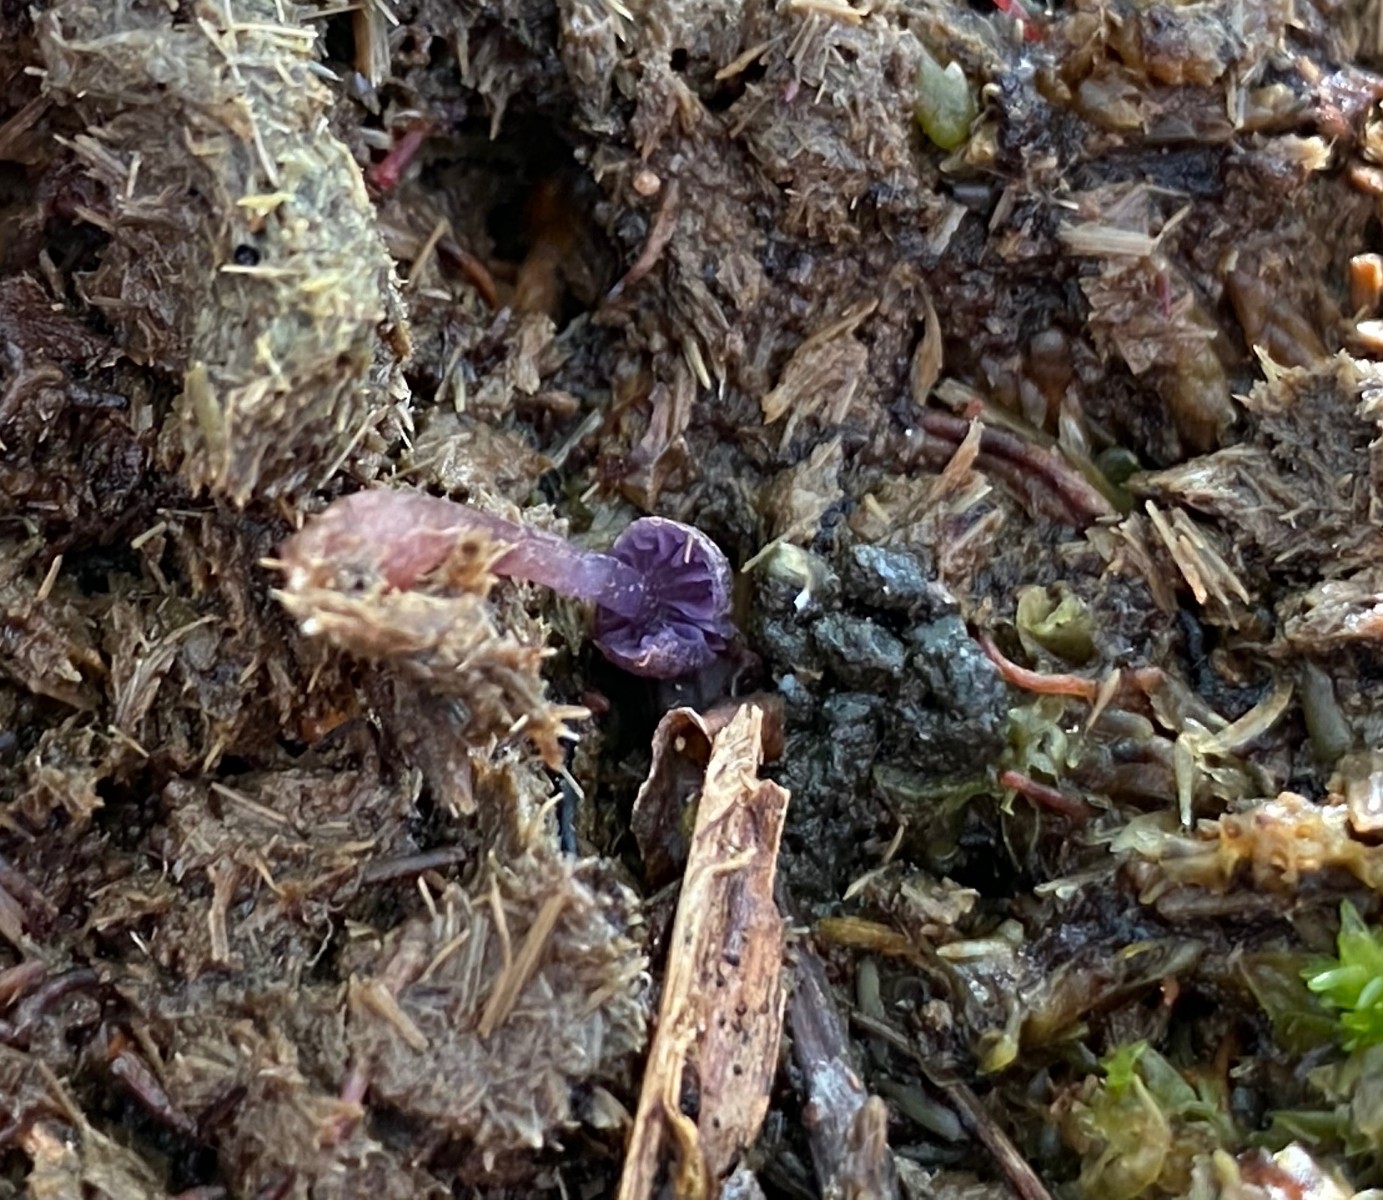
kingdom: Fungi
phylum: Basidiomycota
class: Agaricomycetes
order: Agaricales
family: Hydnangiaceae
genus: Laccaria
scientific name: Laccaria amethystina
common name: violet ametysthat
